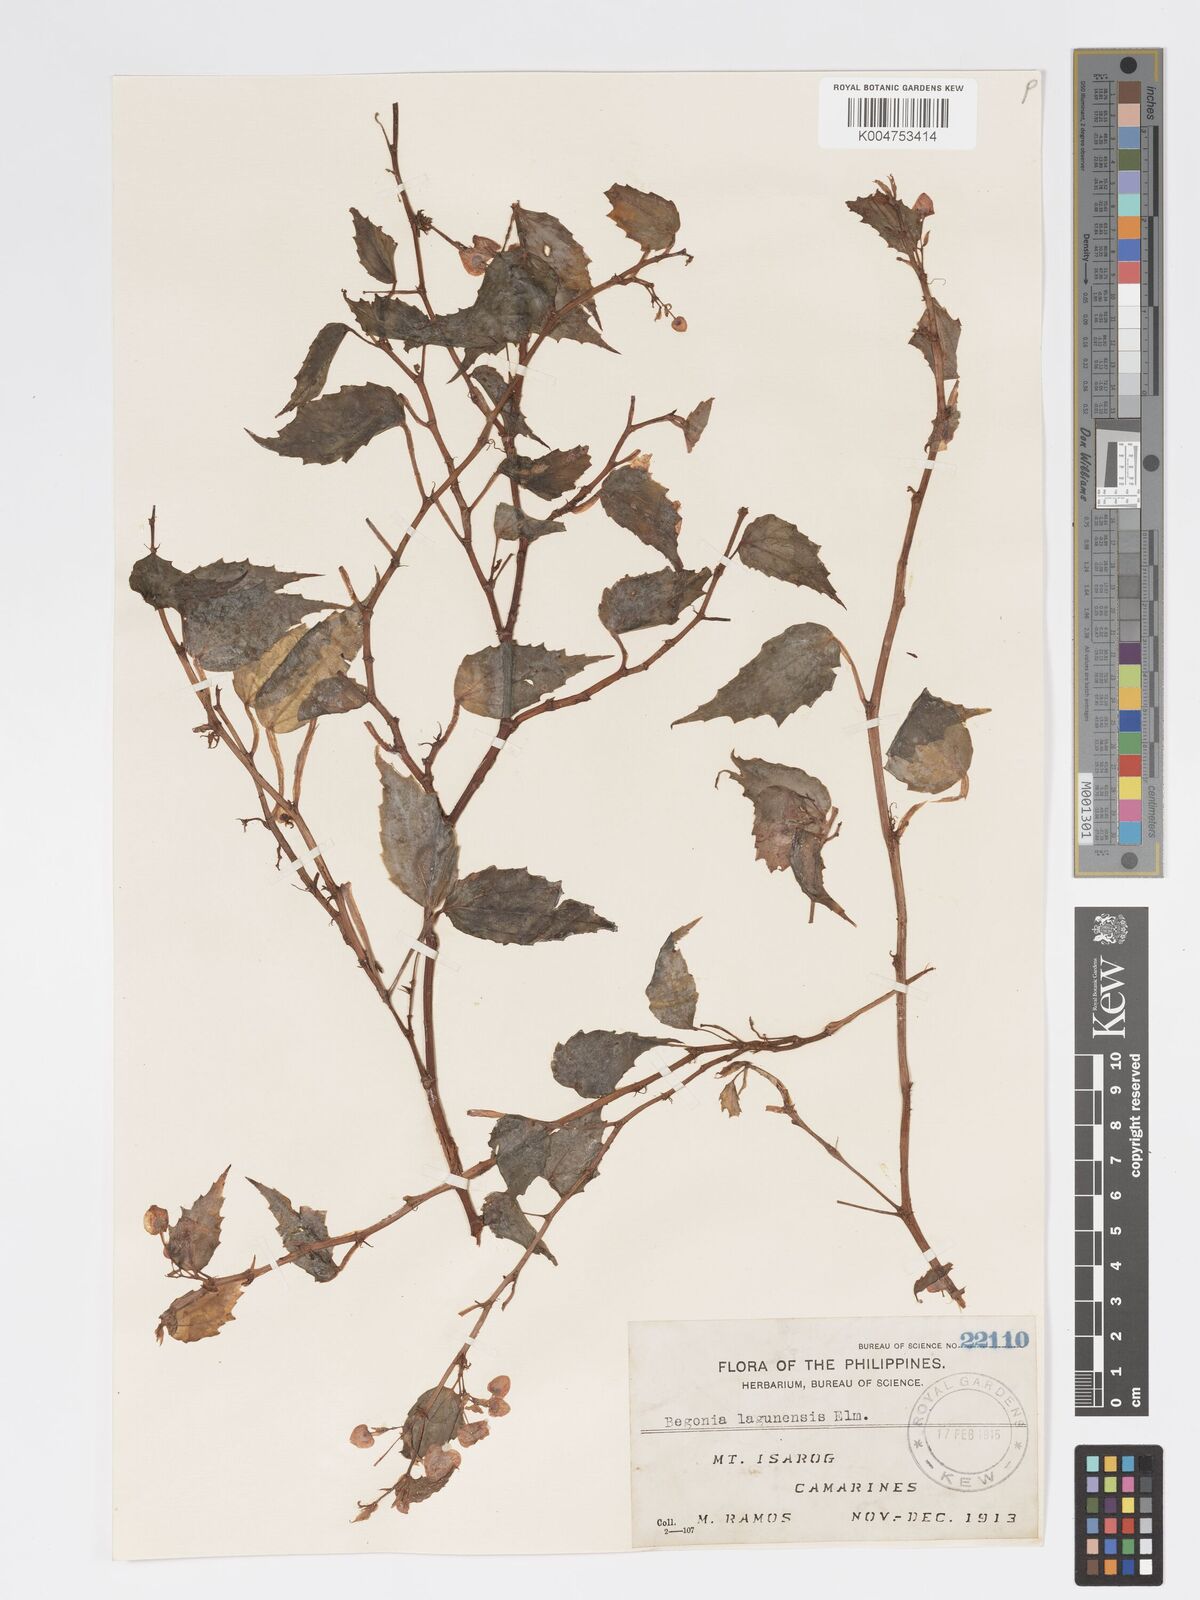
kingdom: Plantae
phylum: Tracheophyta
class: Magnoliopsida
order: Cucurbitales
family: Begoniaceae
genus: Begonia
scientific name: Begonia lagunensis
